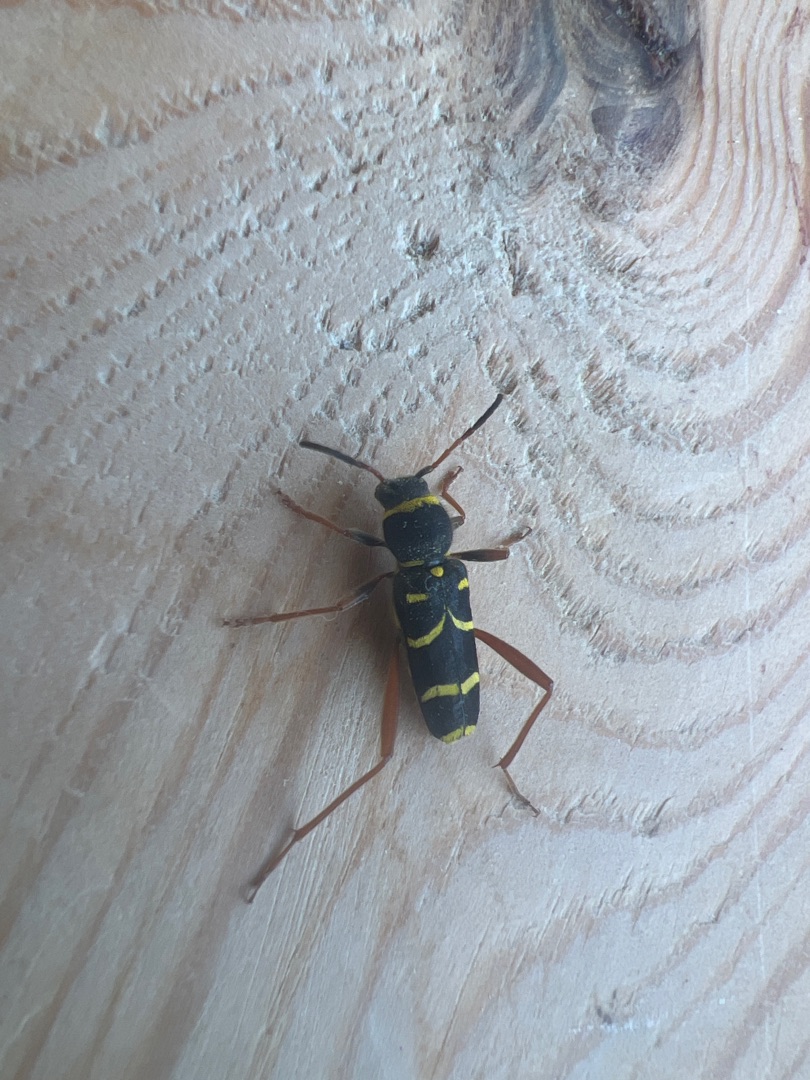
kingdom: Animalia
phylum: Arthropoda
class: Insecta
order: Coleoptera
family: Cerambycidae
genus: Clytus
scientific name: Clytus arietis
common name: Lille hvepsebuk
